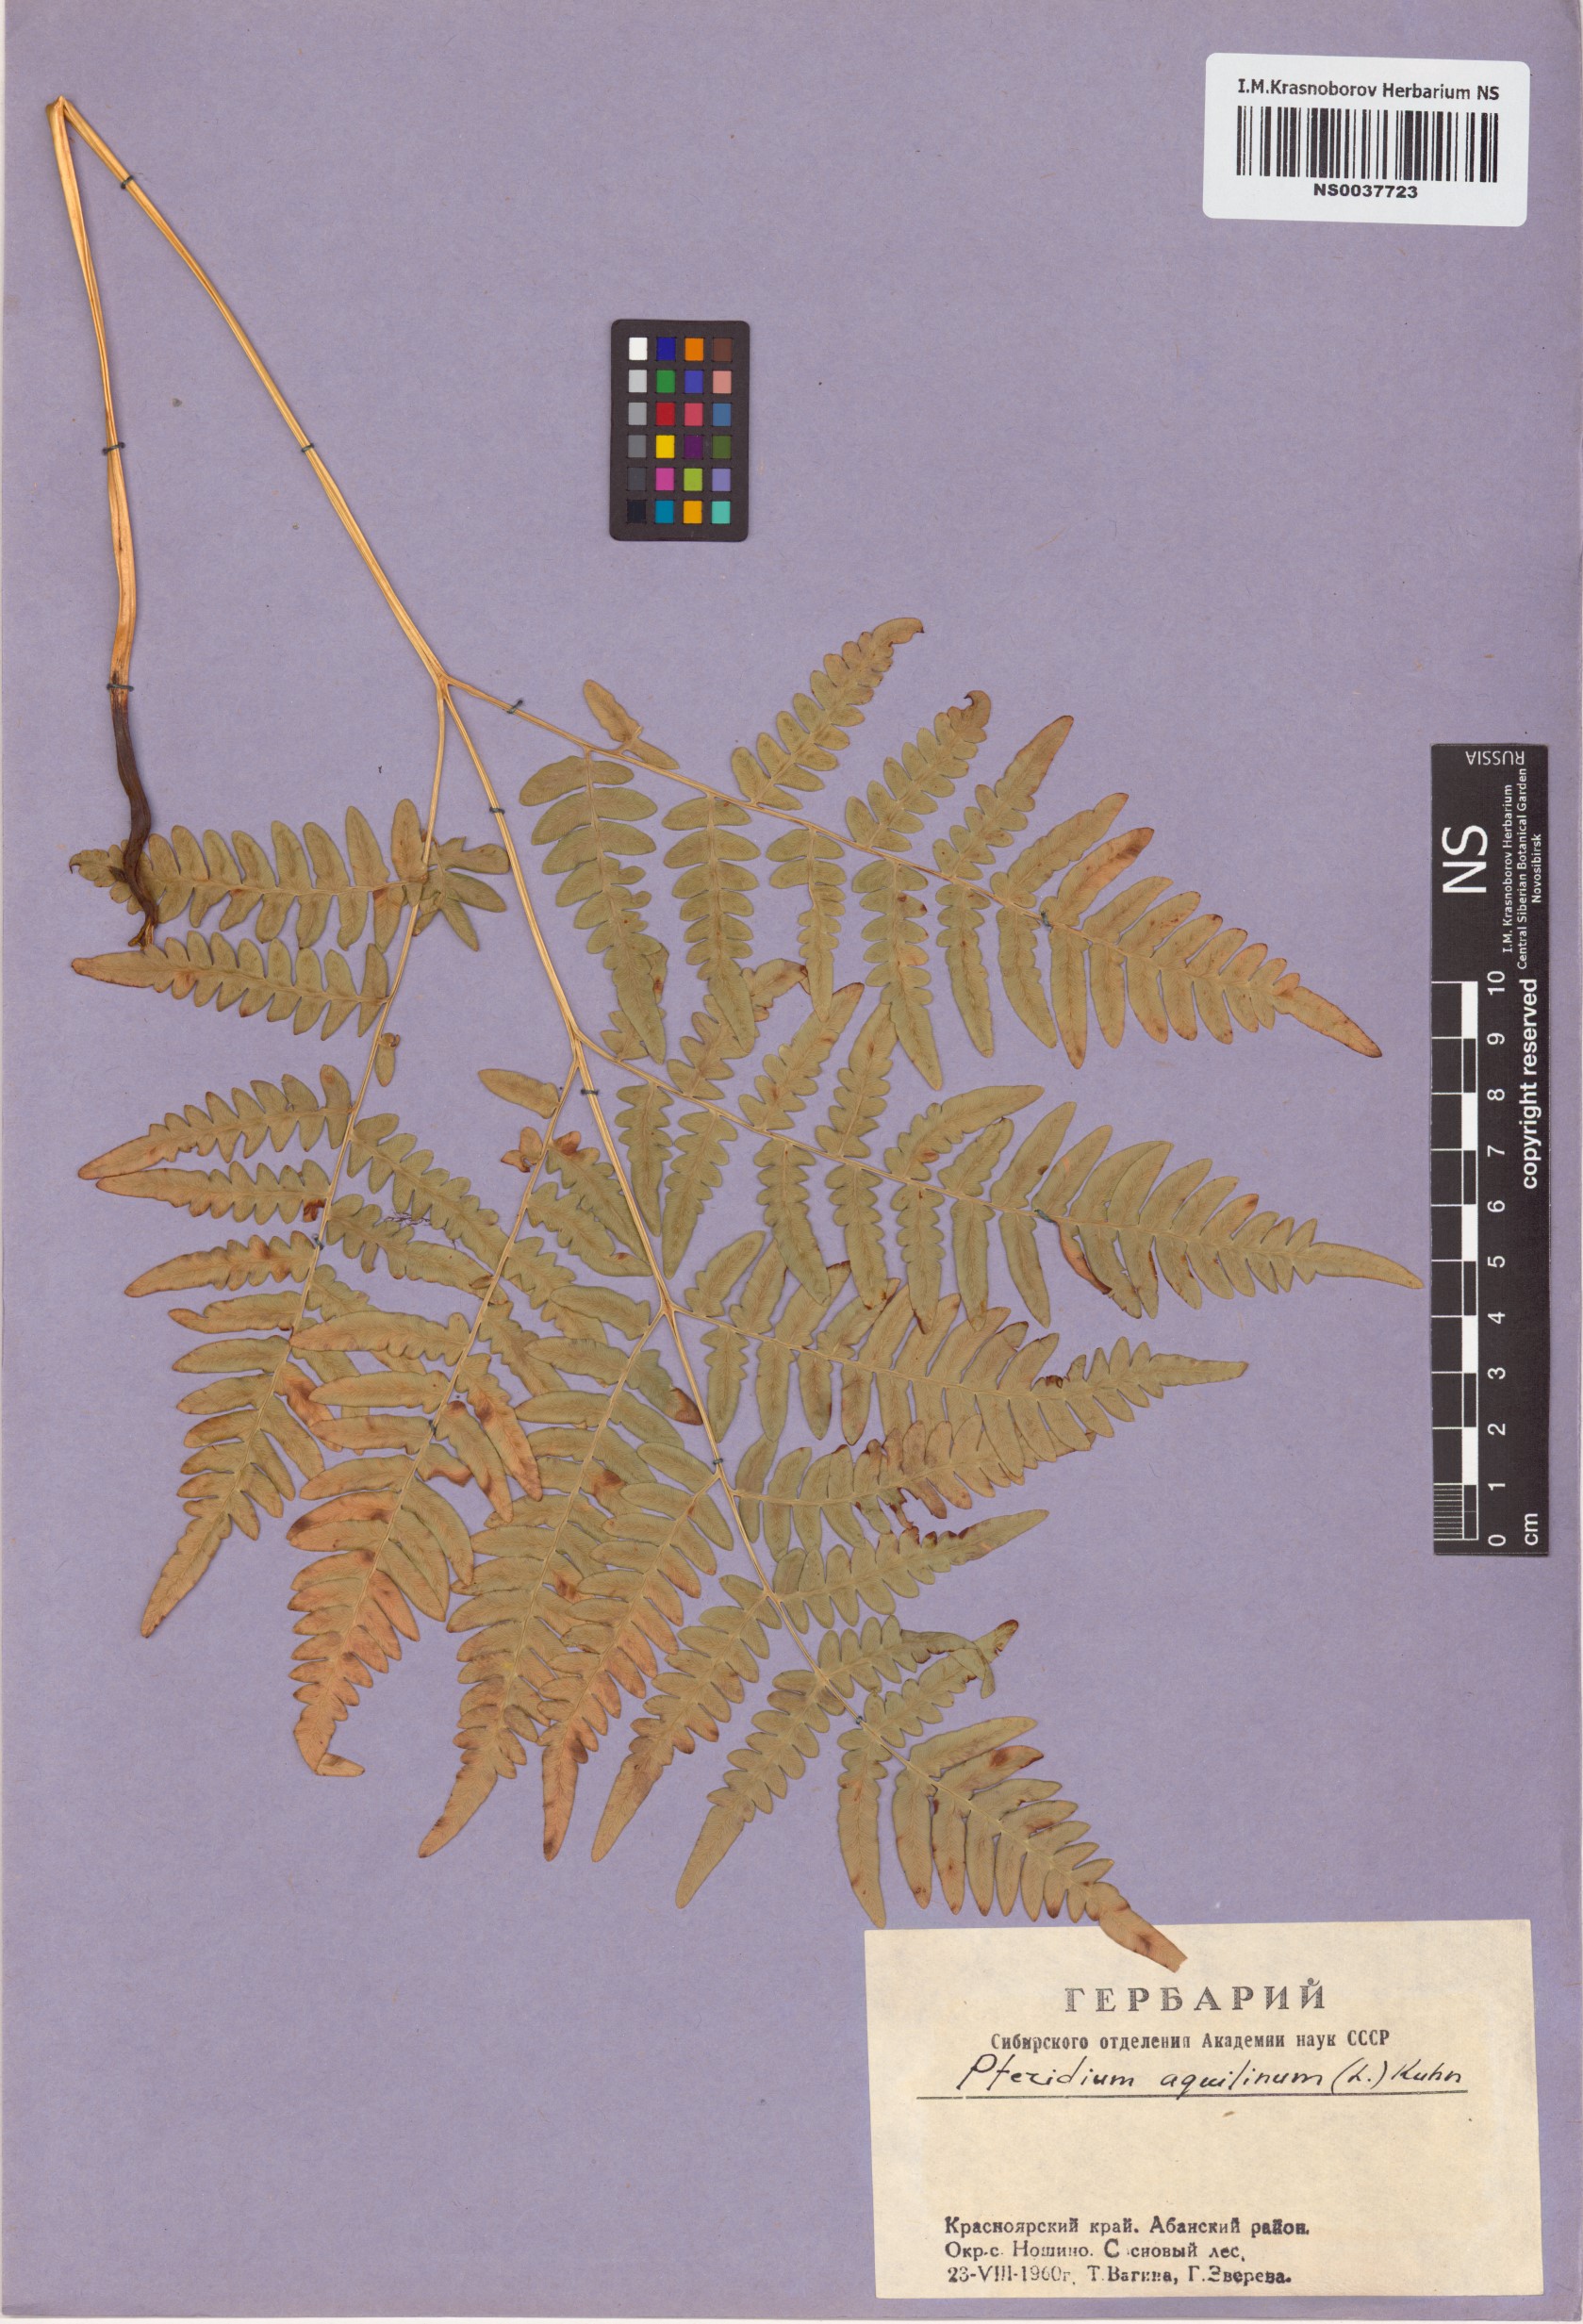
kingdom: Plantae
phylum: Tracheophyta
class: Polypodiopsida
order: Polypodiales
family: Dennstaedtiaceae
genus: Pteridium
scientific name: Pteridium aquilinum
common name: Bracken
